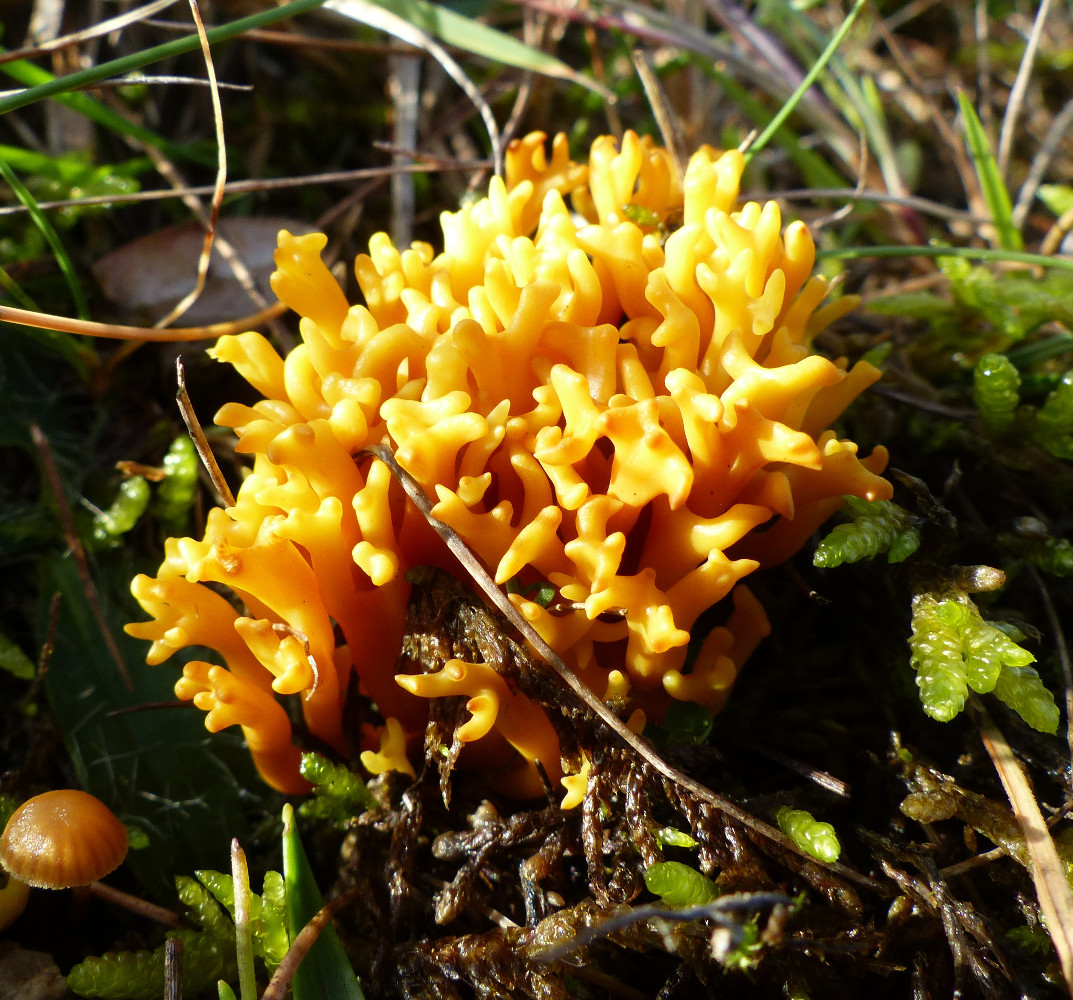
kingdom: Fungi
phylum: Basidiomycota
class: Agaricomycetes
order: Agaricales
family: Clavariaceae
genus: Clavulinopsis
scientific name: Clavulinopsis corniculata
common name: eng-køllesvamp
